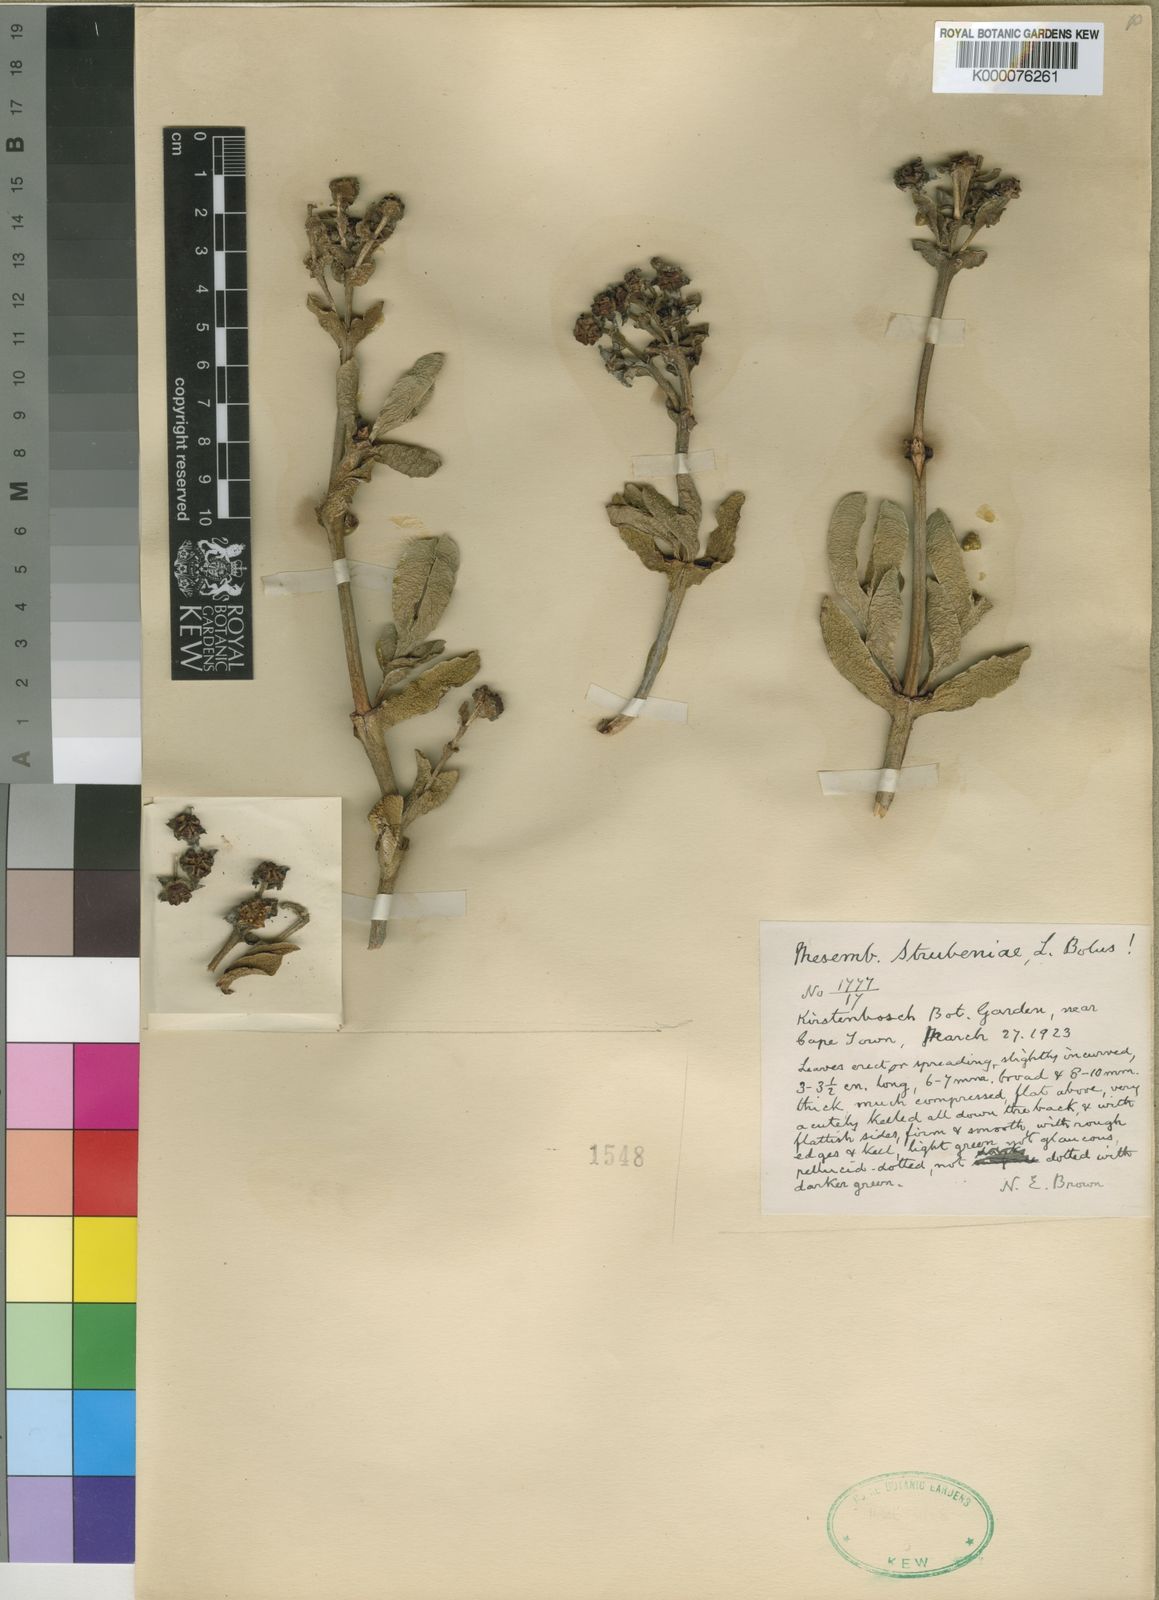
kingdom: Plantae
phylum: Tracheophyta
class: Magnoliopsida
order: Caryophyllales
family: Aizoaceae
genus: Ruschia
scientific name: Ruschia strubeniae
